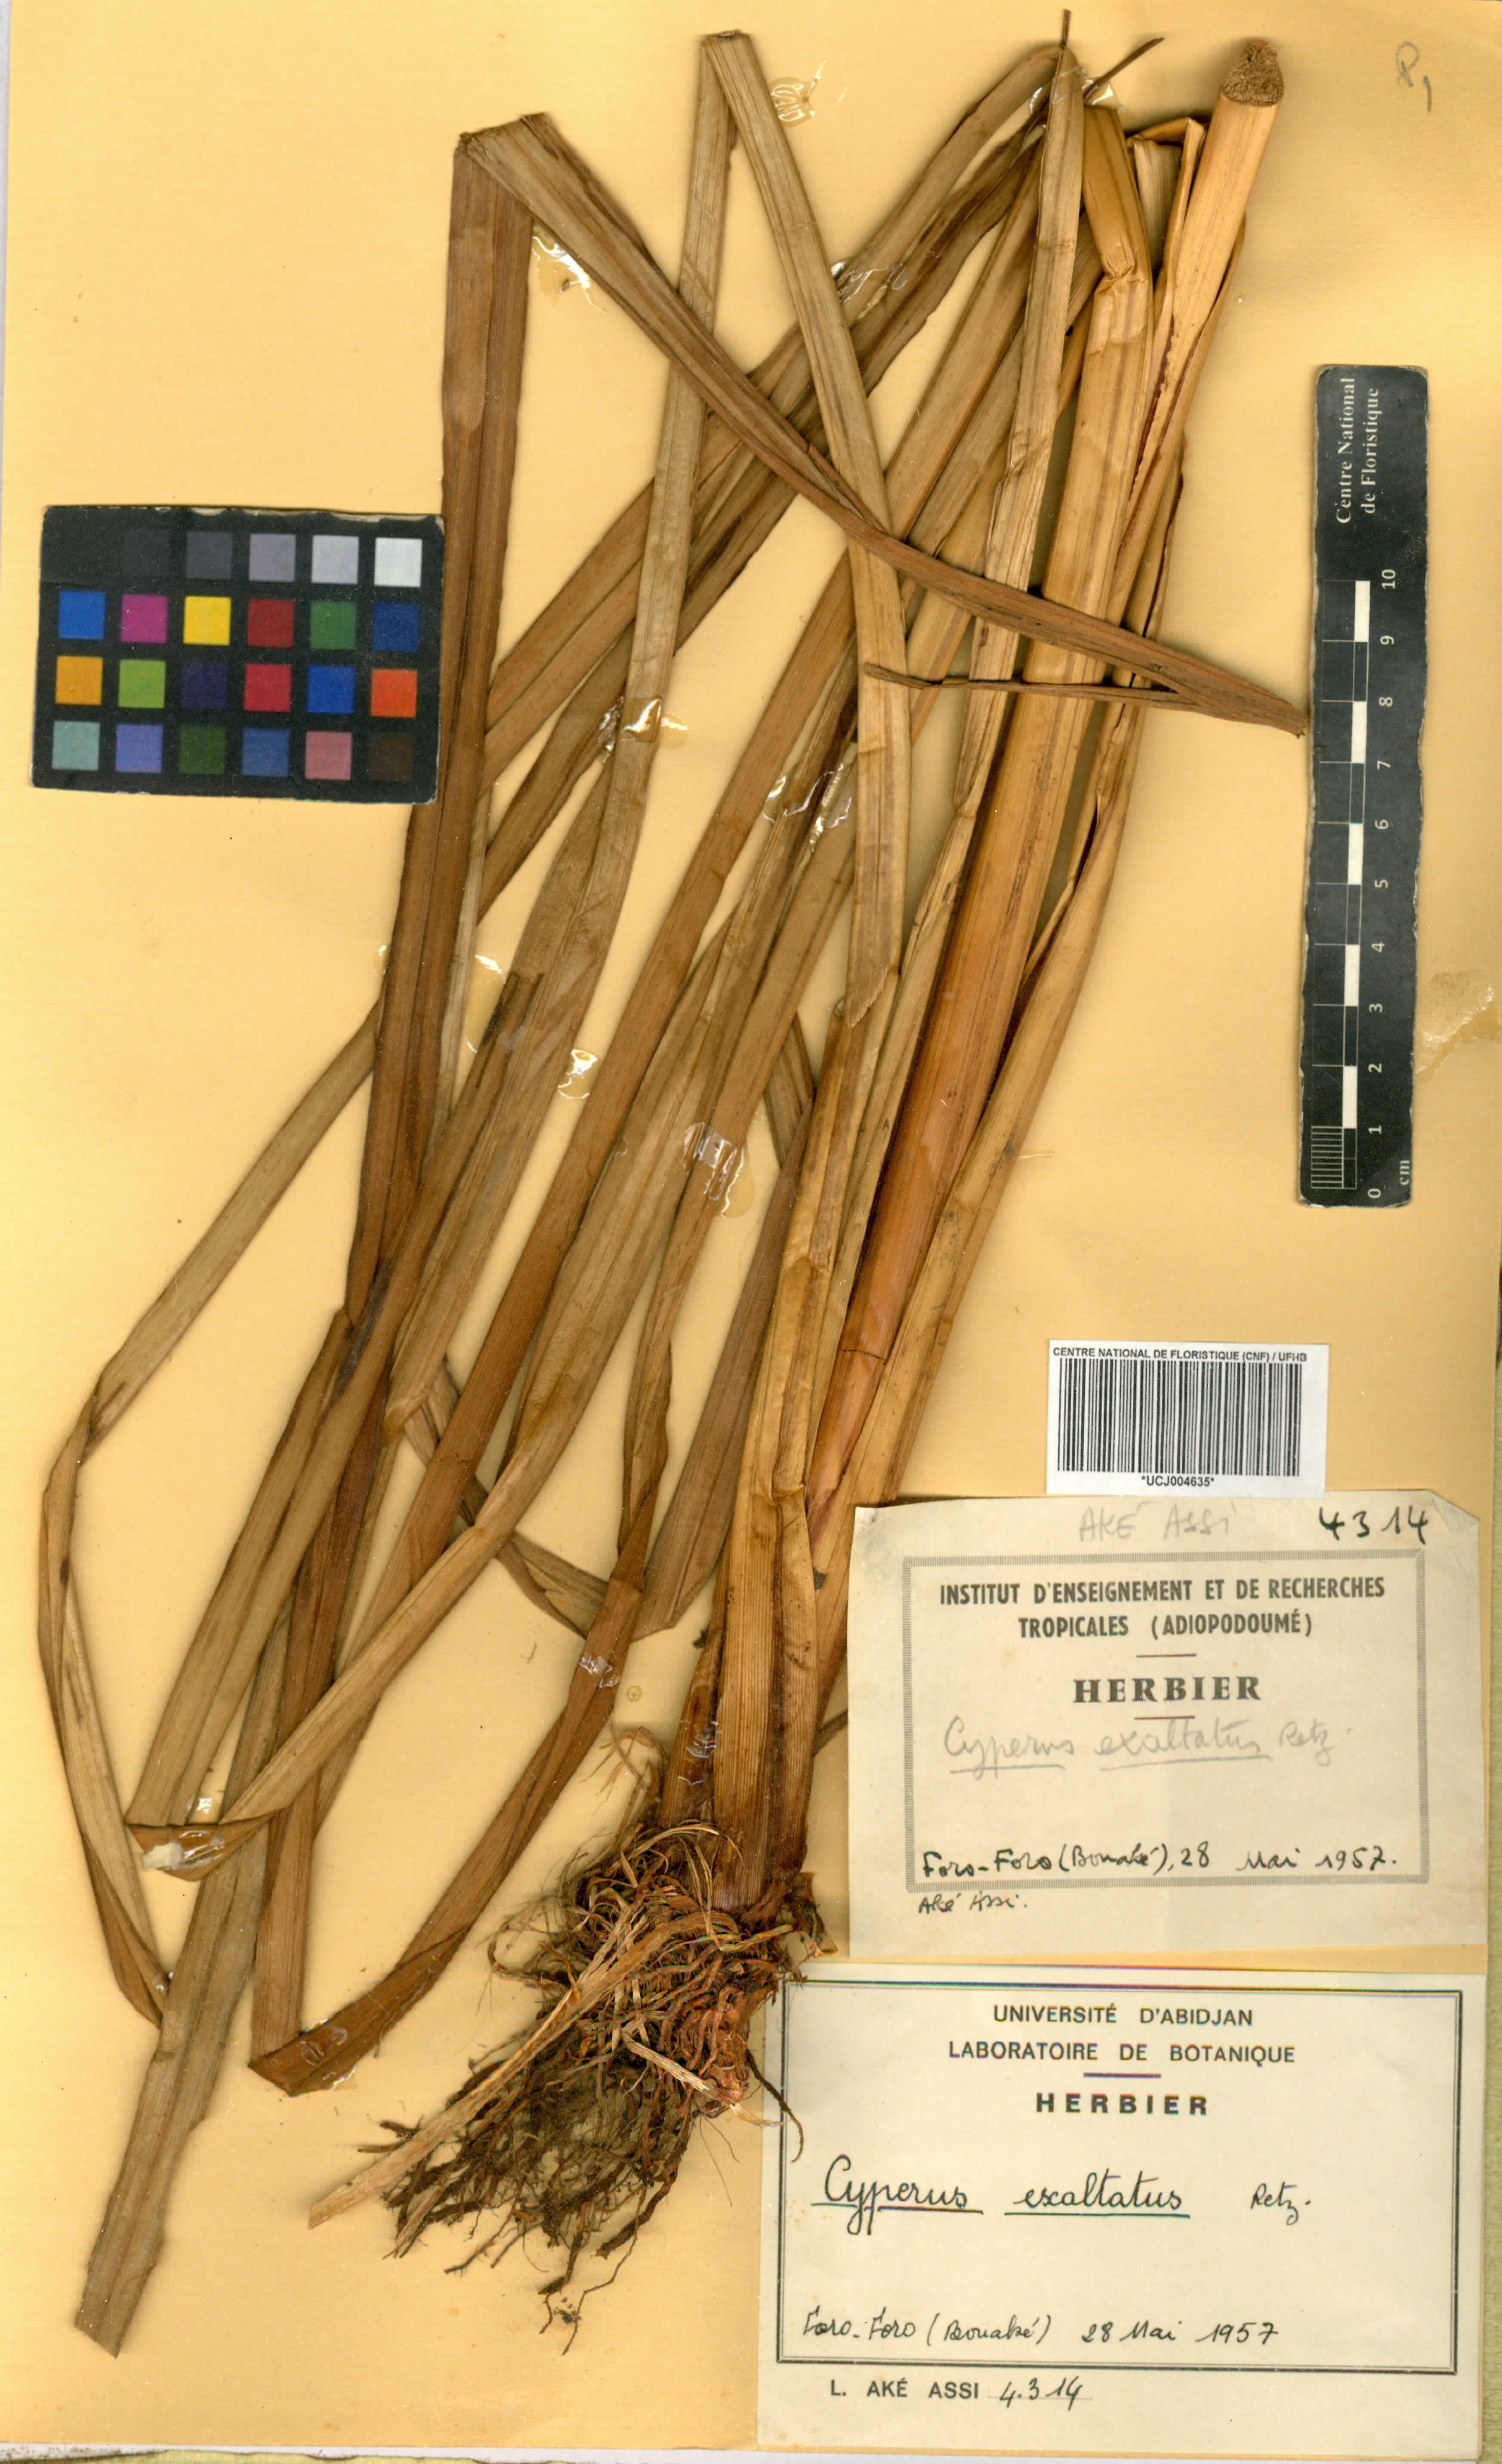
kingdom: Plantae
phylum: Tracheophyta
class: Liliopsida
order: Poales
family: Cyperaceae
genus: Cyperus
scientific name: Cyperus exaltatus
